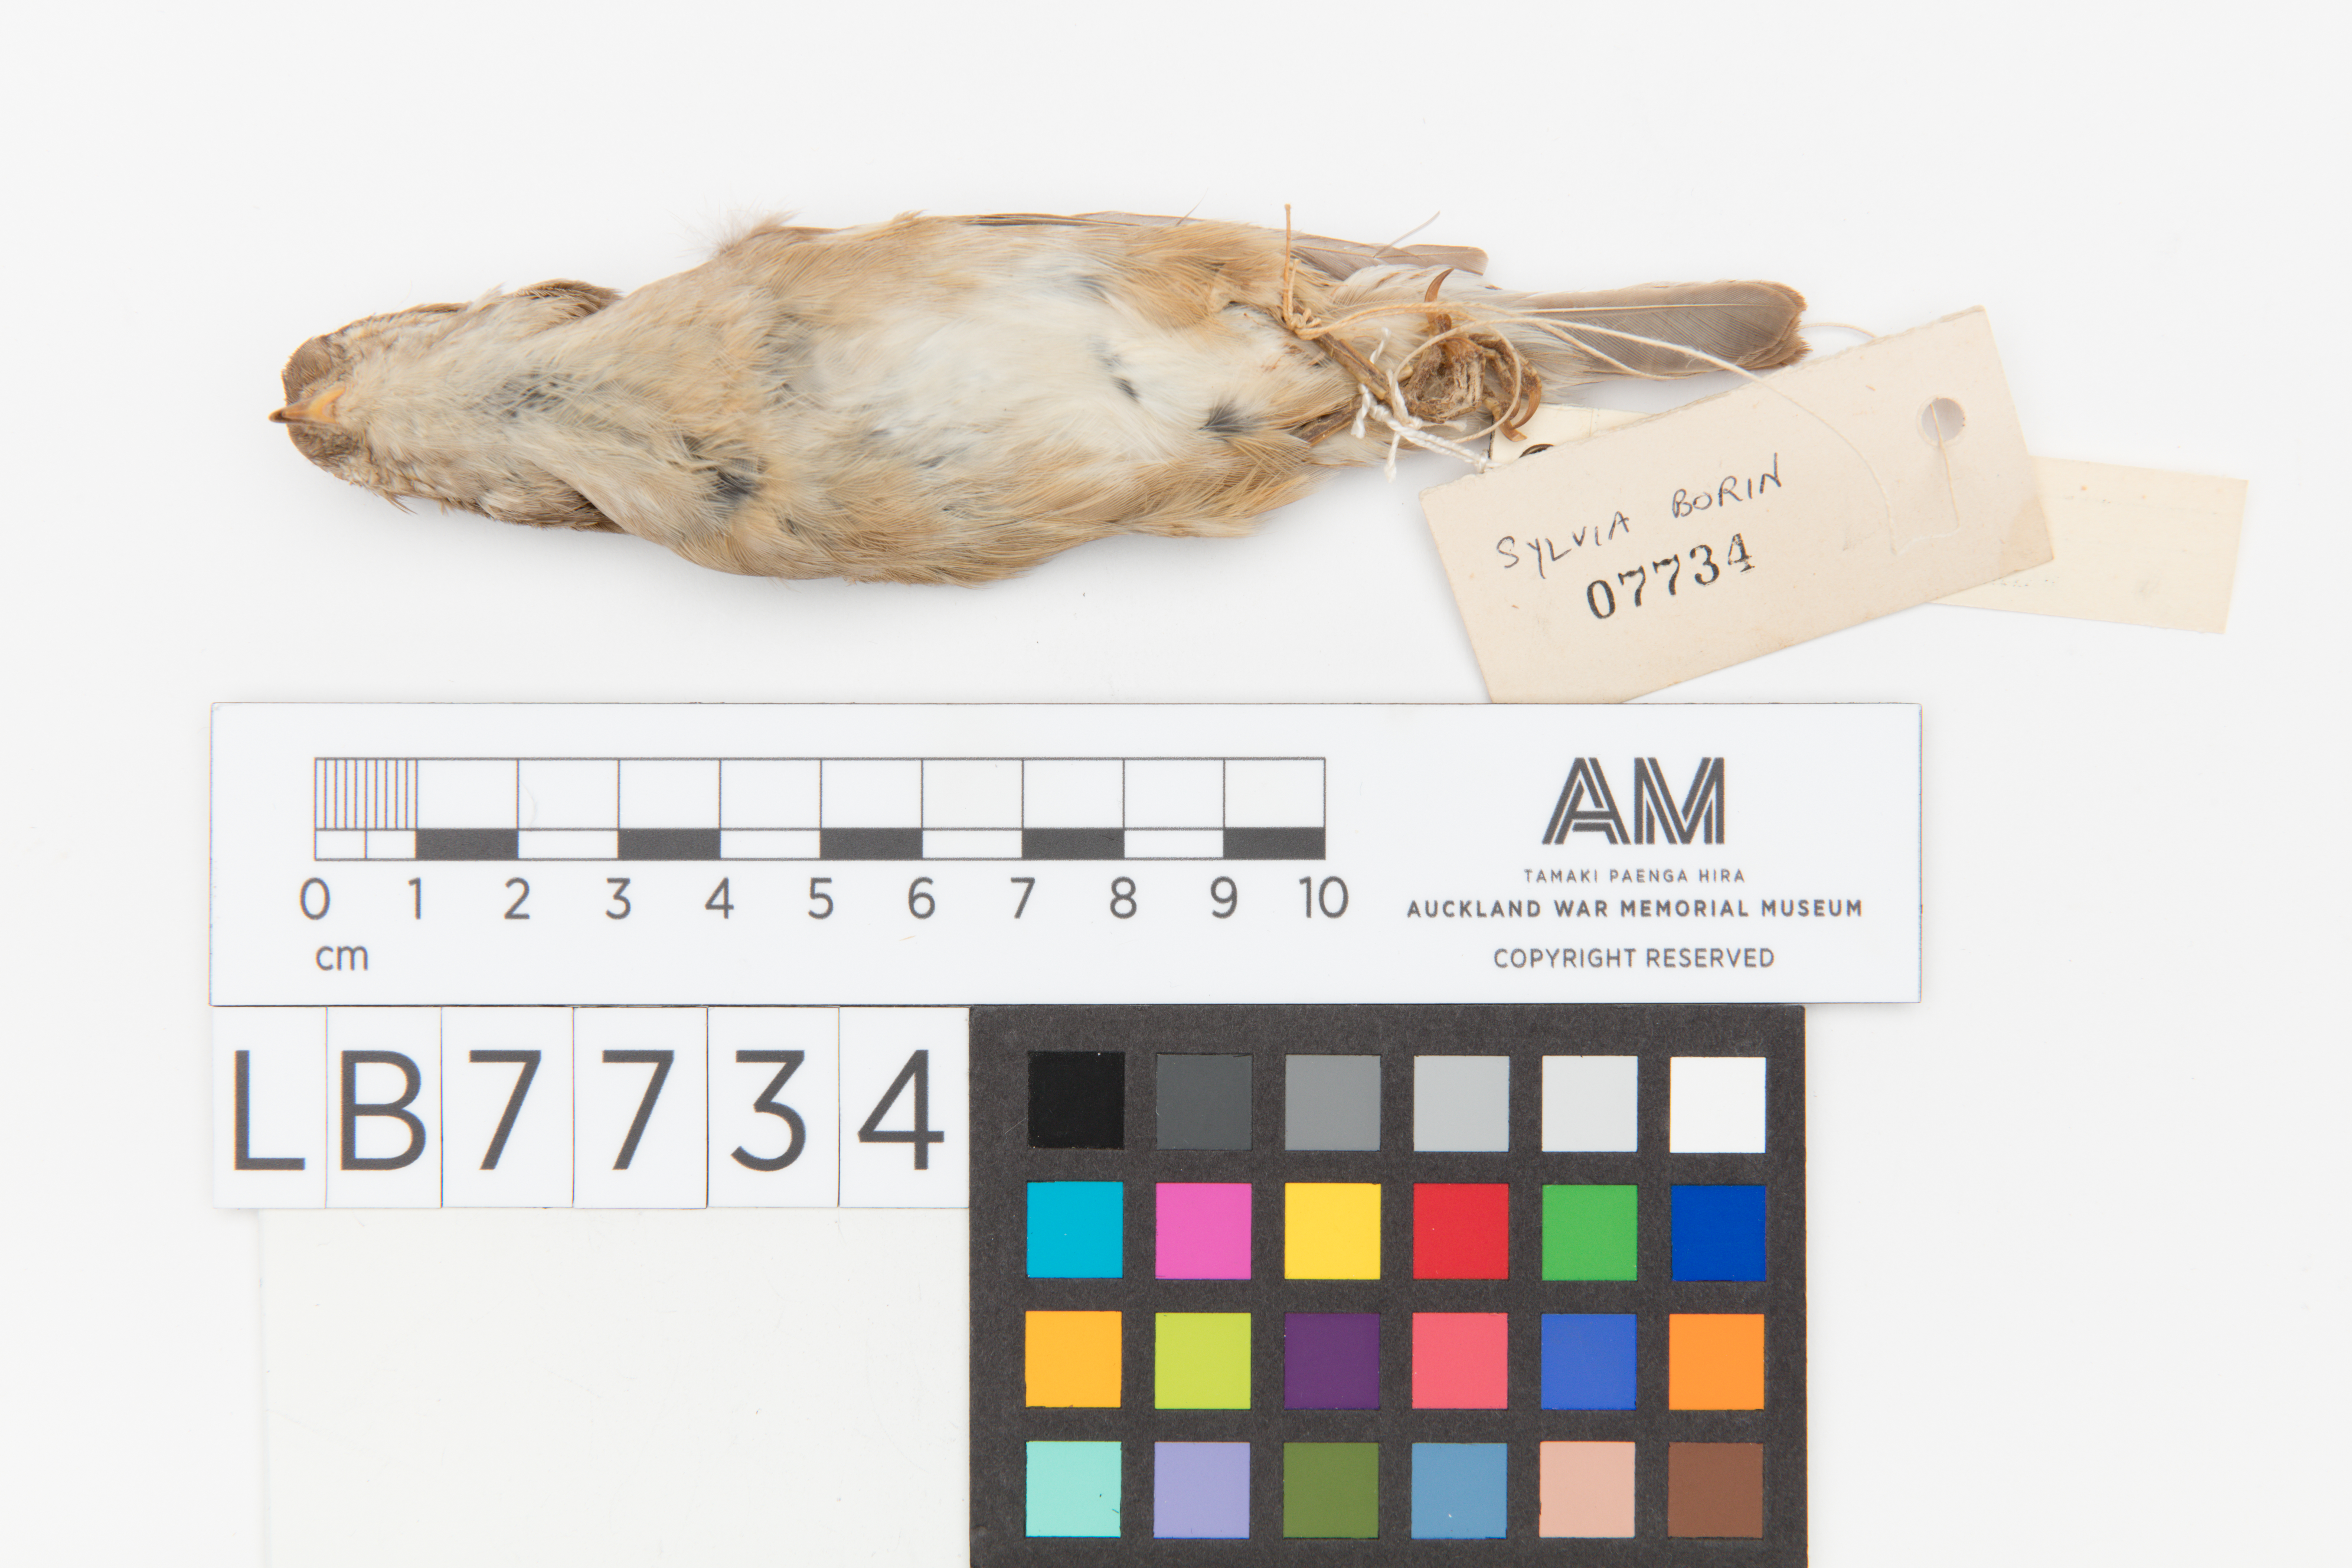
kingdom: Animalia
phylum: Chordata
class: Aves
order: Passeriformes
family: Sylviidae
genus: Sylvia
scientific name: Sylvia borin
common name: Garden warbler
